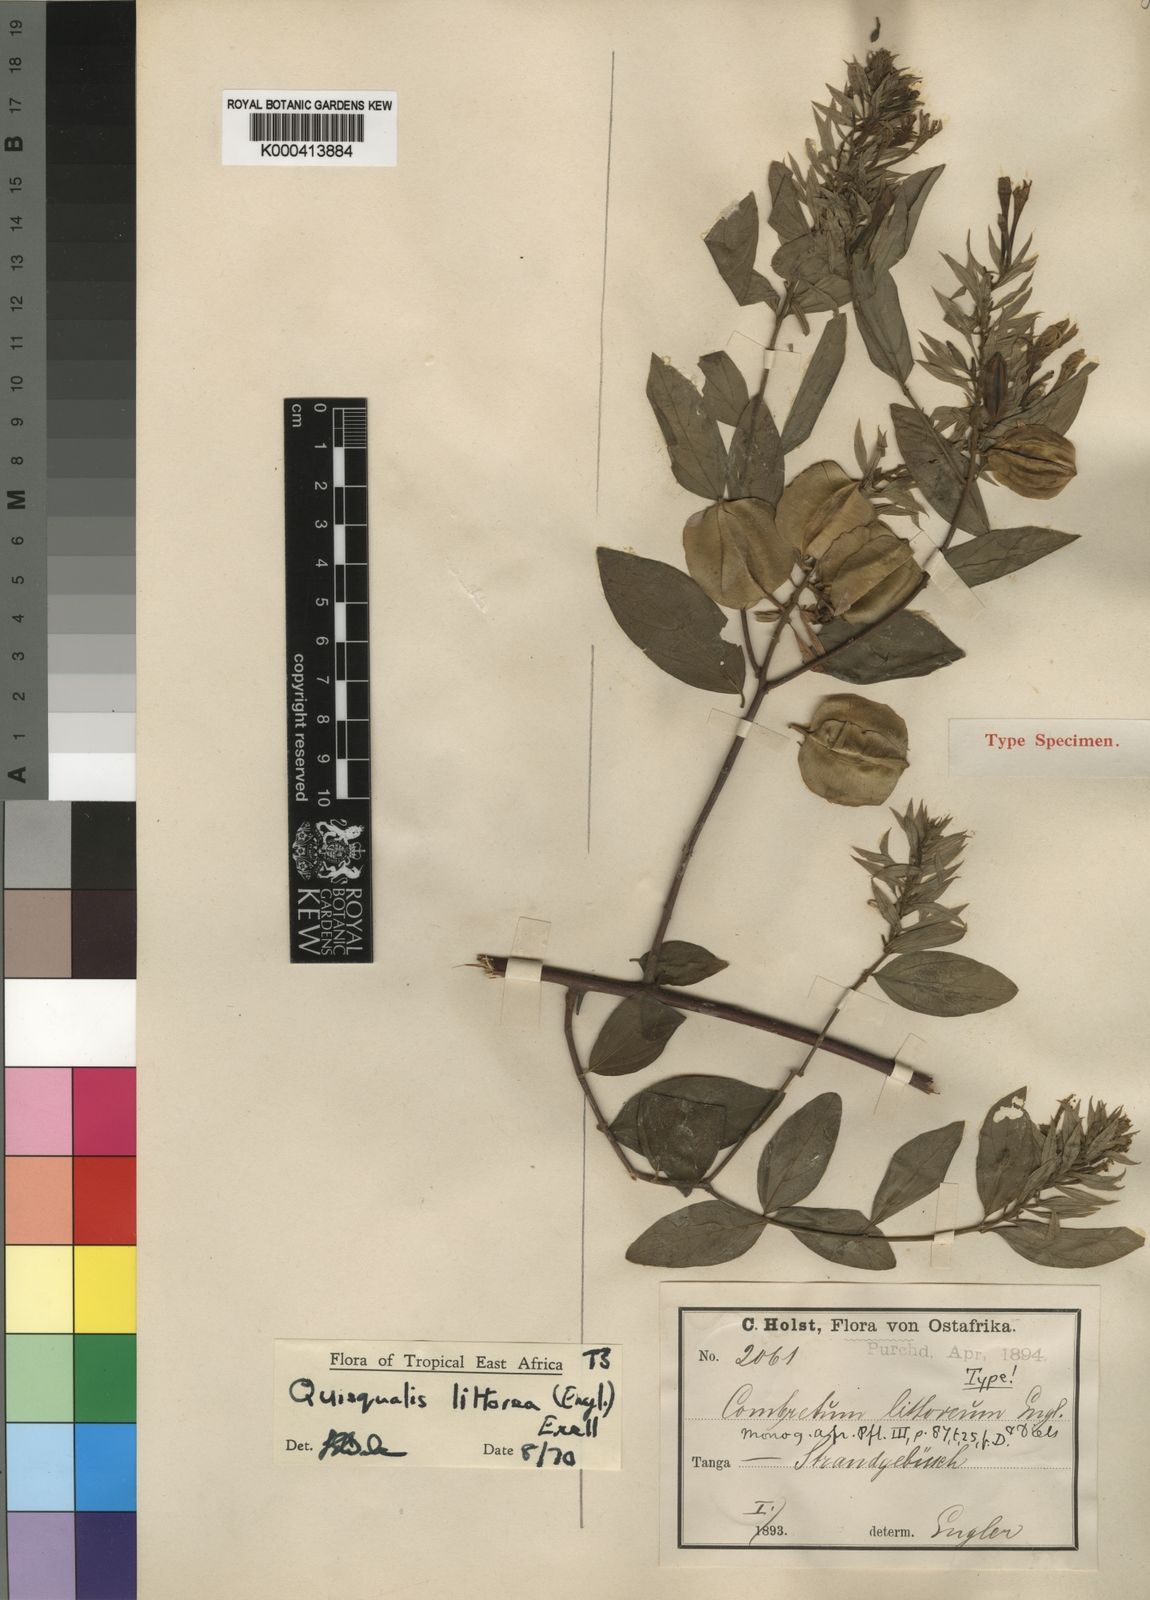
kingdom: Plantae
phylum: Tracheophyta
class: Magnoliopsida
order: Myrtales
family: Combretaceae
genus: Combretum
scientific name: Combretum falcatum
